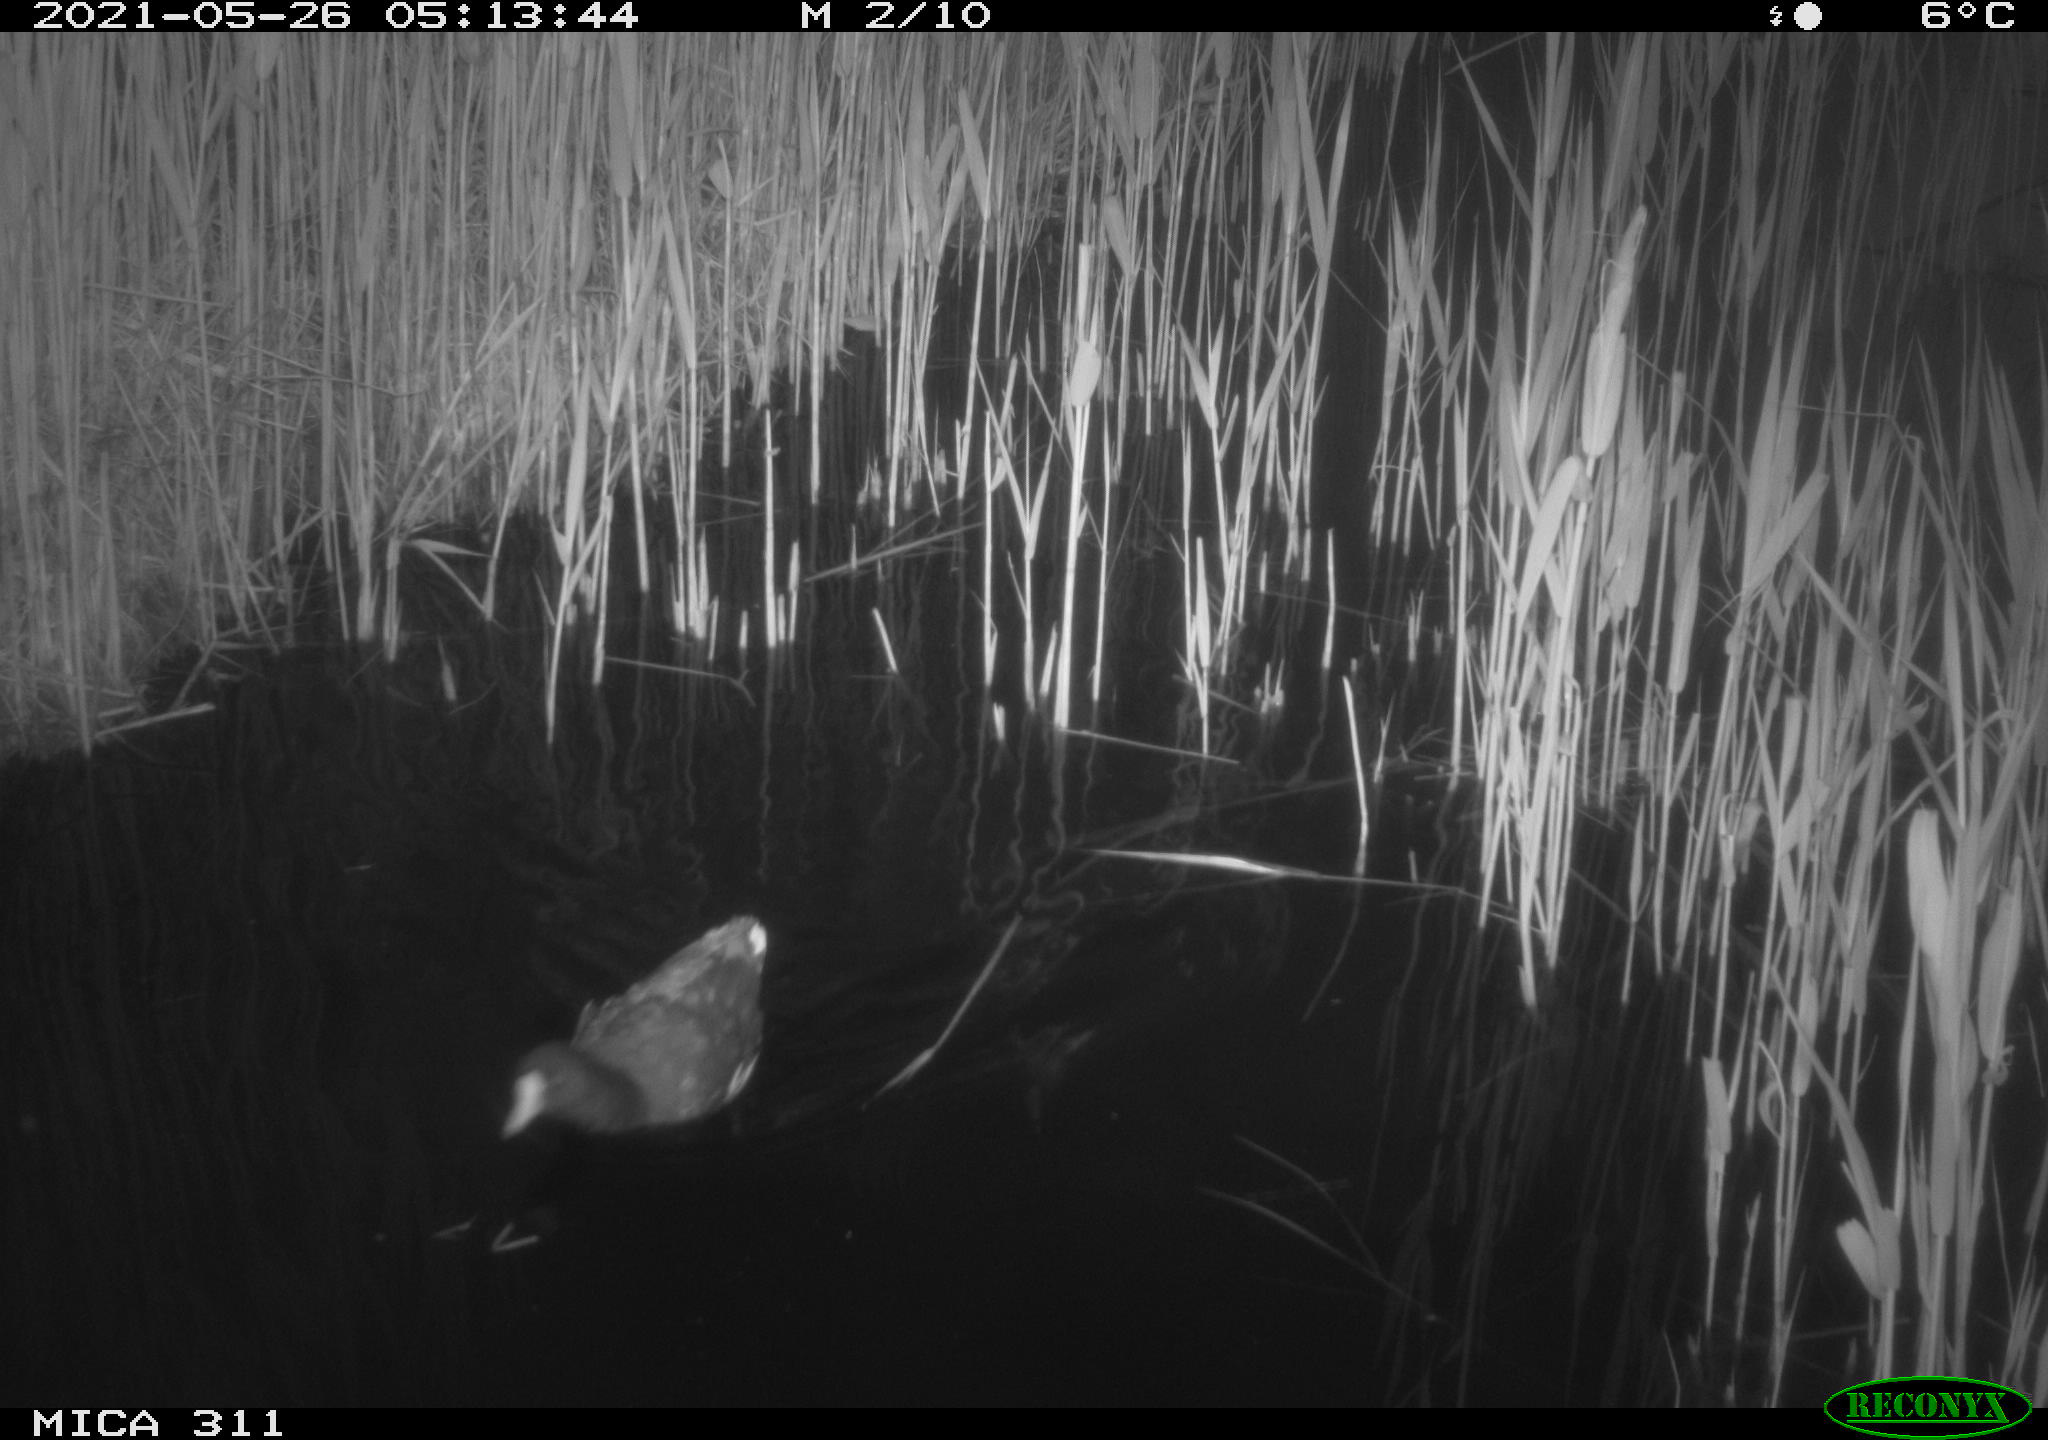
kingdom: Animalia
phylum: Chordata
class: Aves
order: Gruiformes
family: Rallidae
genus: Gallinula
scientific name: Gallinula chloropus
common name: Common moorhen
